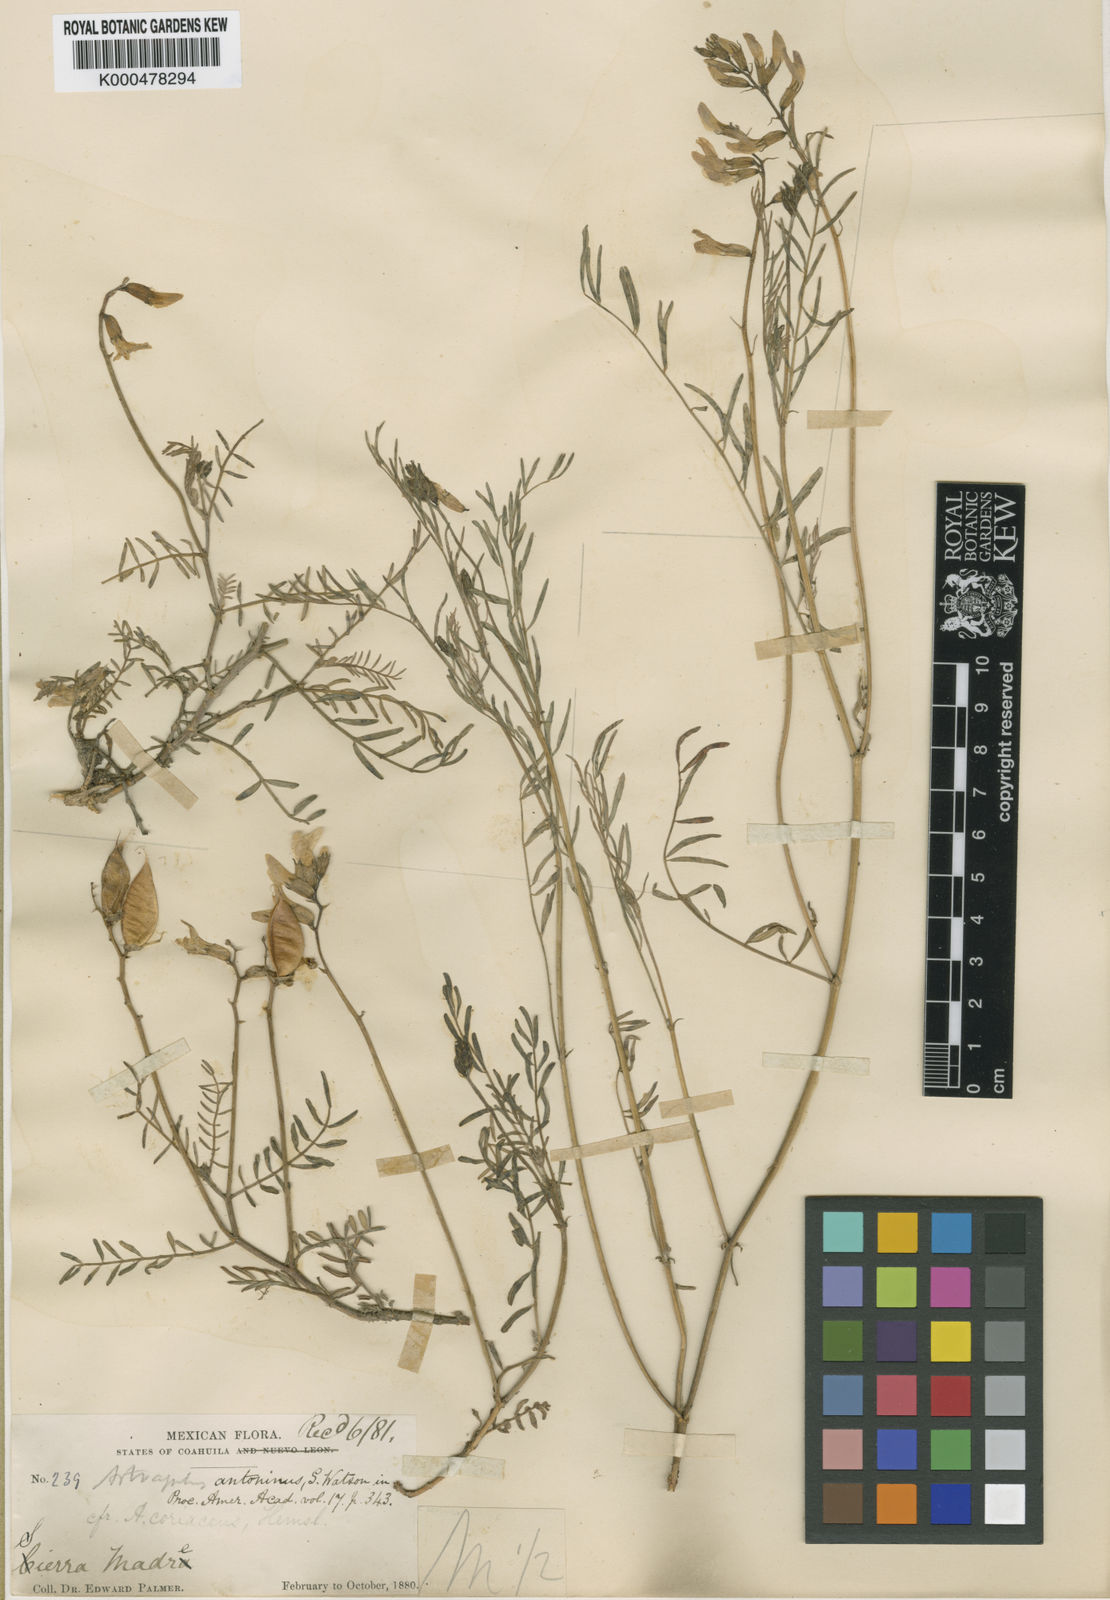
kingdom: Plantae
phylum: Tracheophyta
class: Magnoliopsida
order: Fabales
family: Fabaceae
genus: Astragalus
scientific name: Astragalus coriaceus
